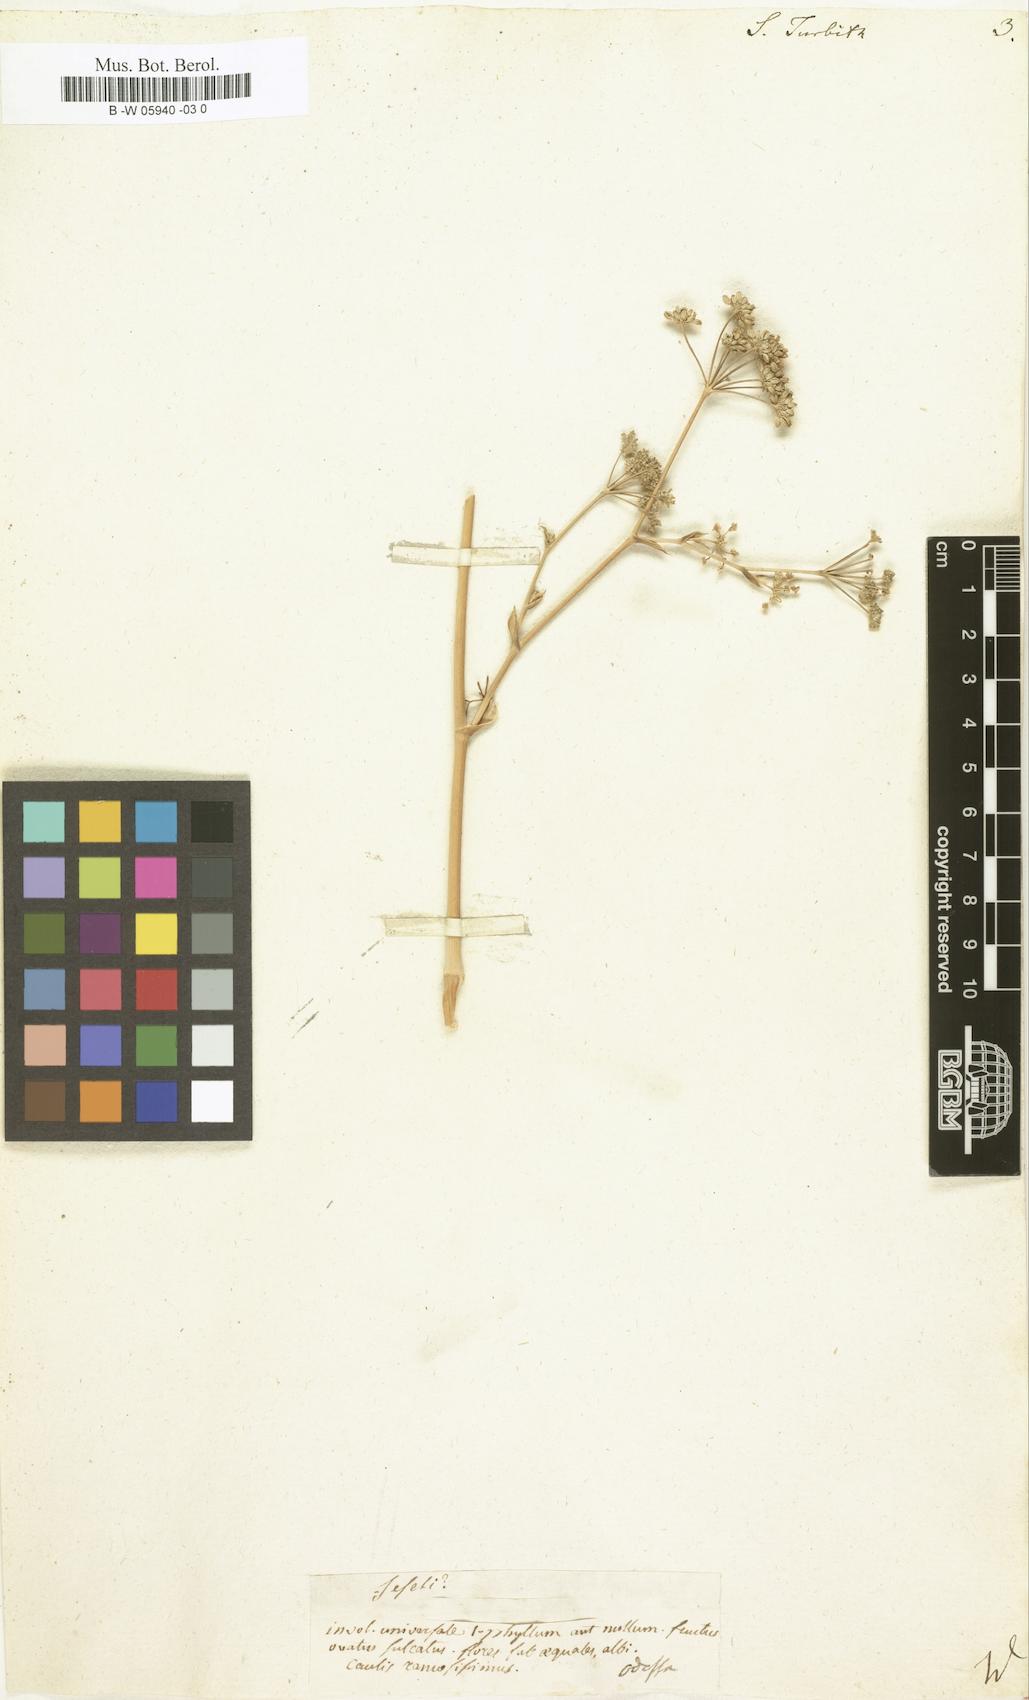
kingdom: Plantae
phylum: Tracheophyta
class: Magnoliopsida
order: Apiales
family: Apiaceae
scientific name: Apiaceae
